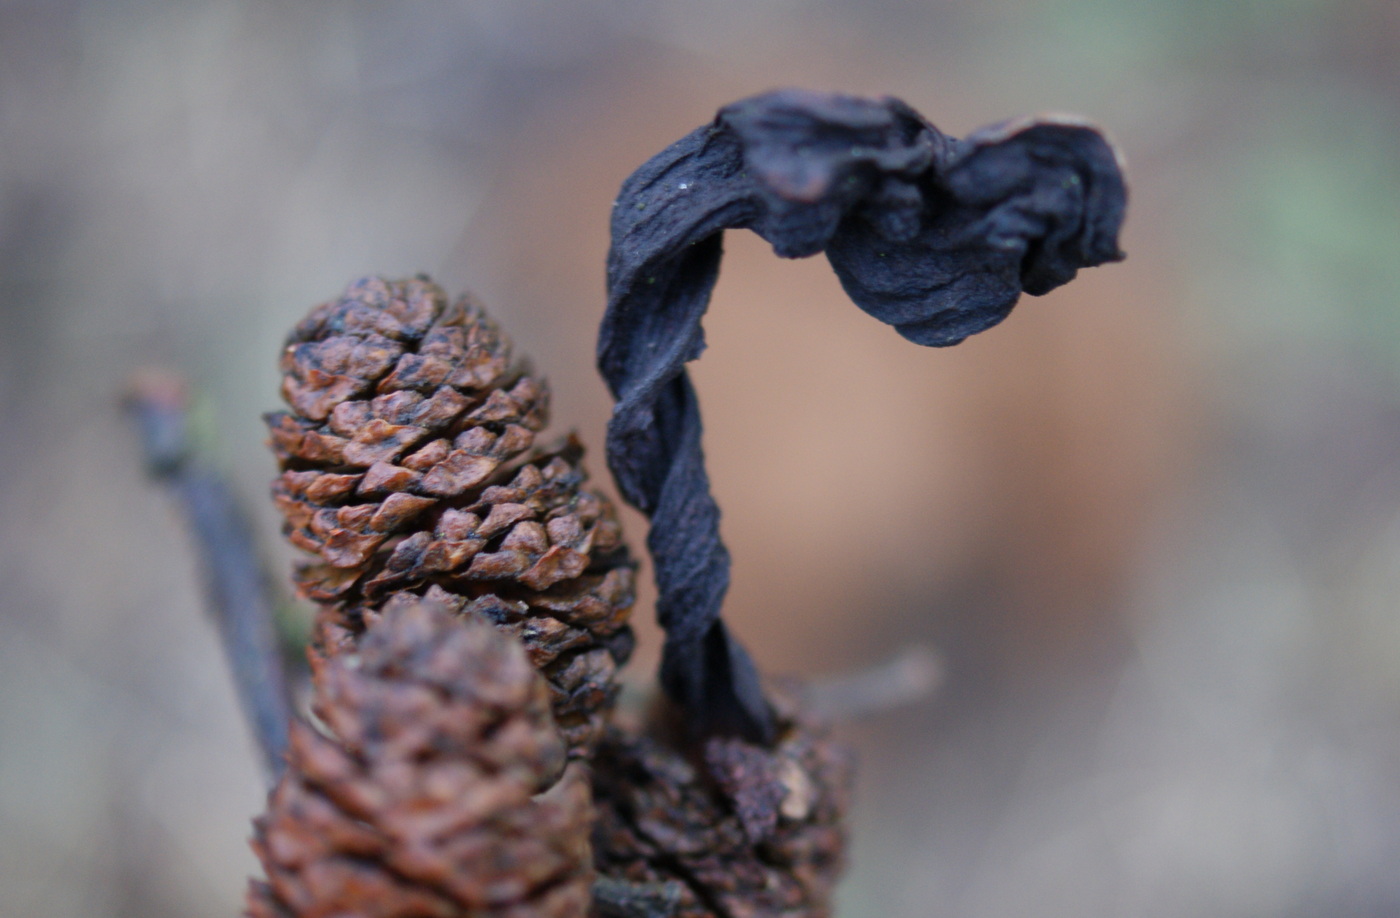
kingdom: Fungi
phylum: Ascomycota
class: Taphrinomycetes
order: Taphrinales
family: Taphrinaceae
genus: Taphrina
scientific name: Taphrina alni
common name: Alder tongue
